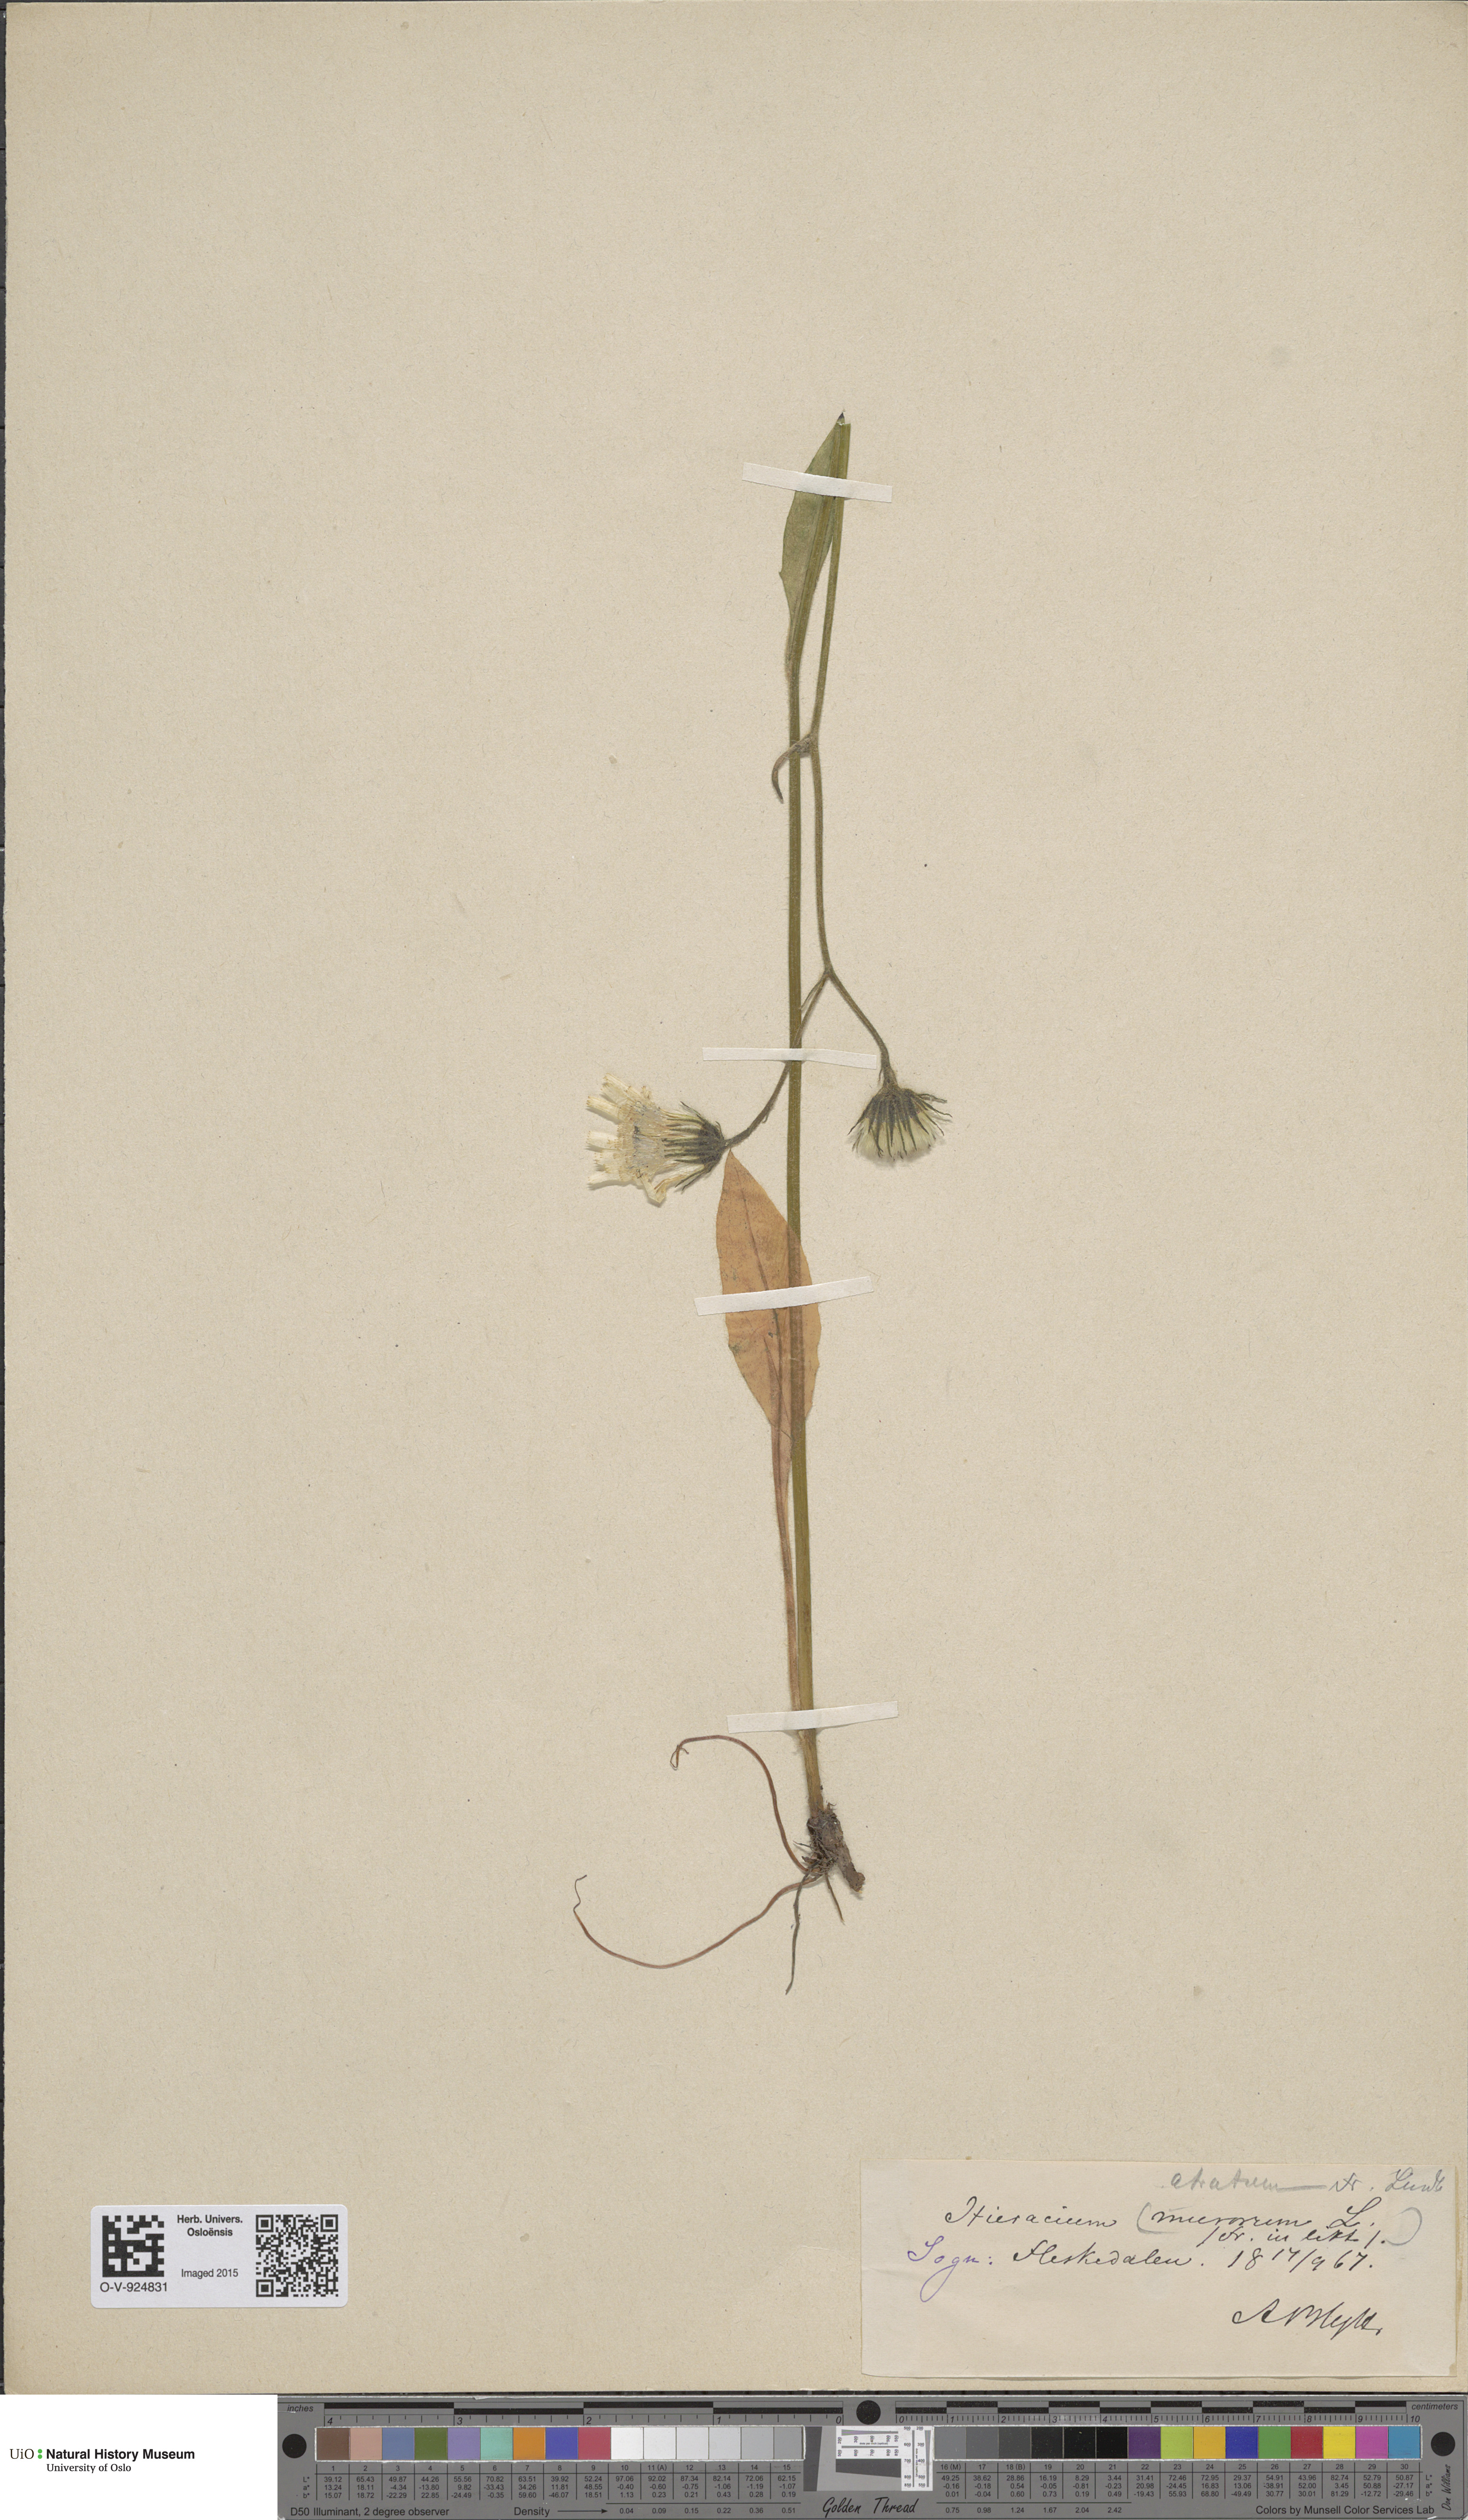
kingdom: Plantae
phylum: Tracheophyta
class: Magnoliopsida
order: Asterales
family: Asteraceae
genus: Hieracium
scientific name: Hieracium atratum
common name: Polar hawkweed
